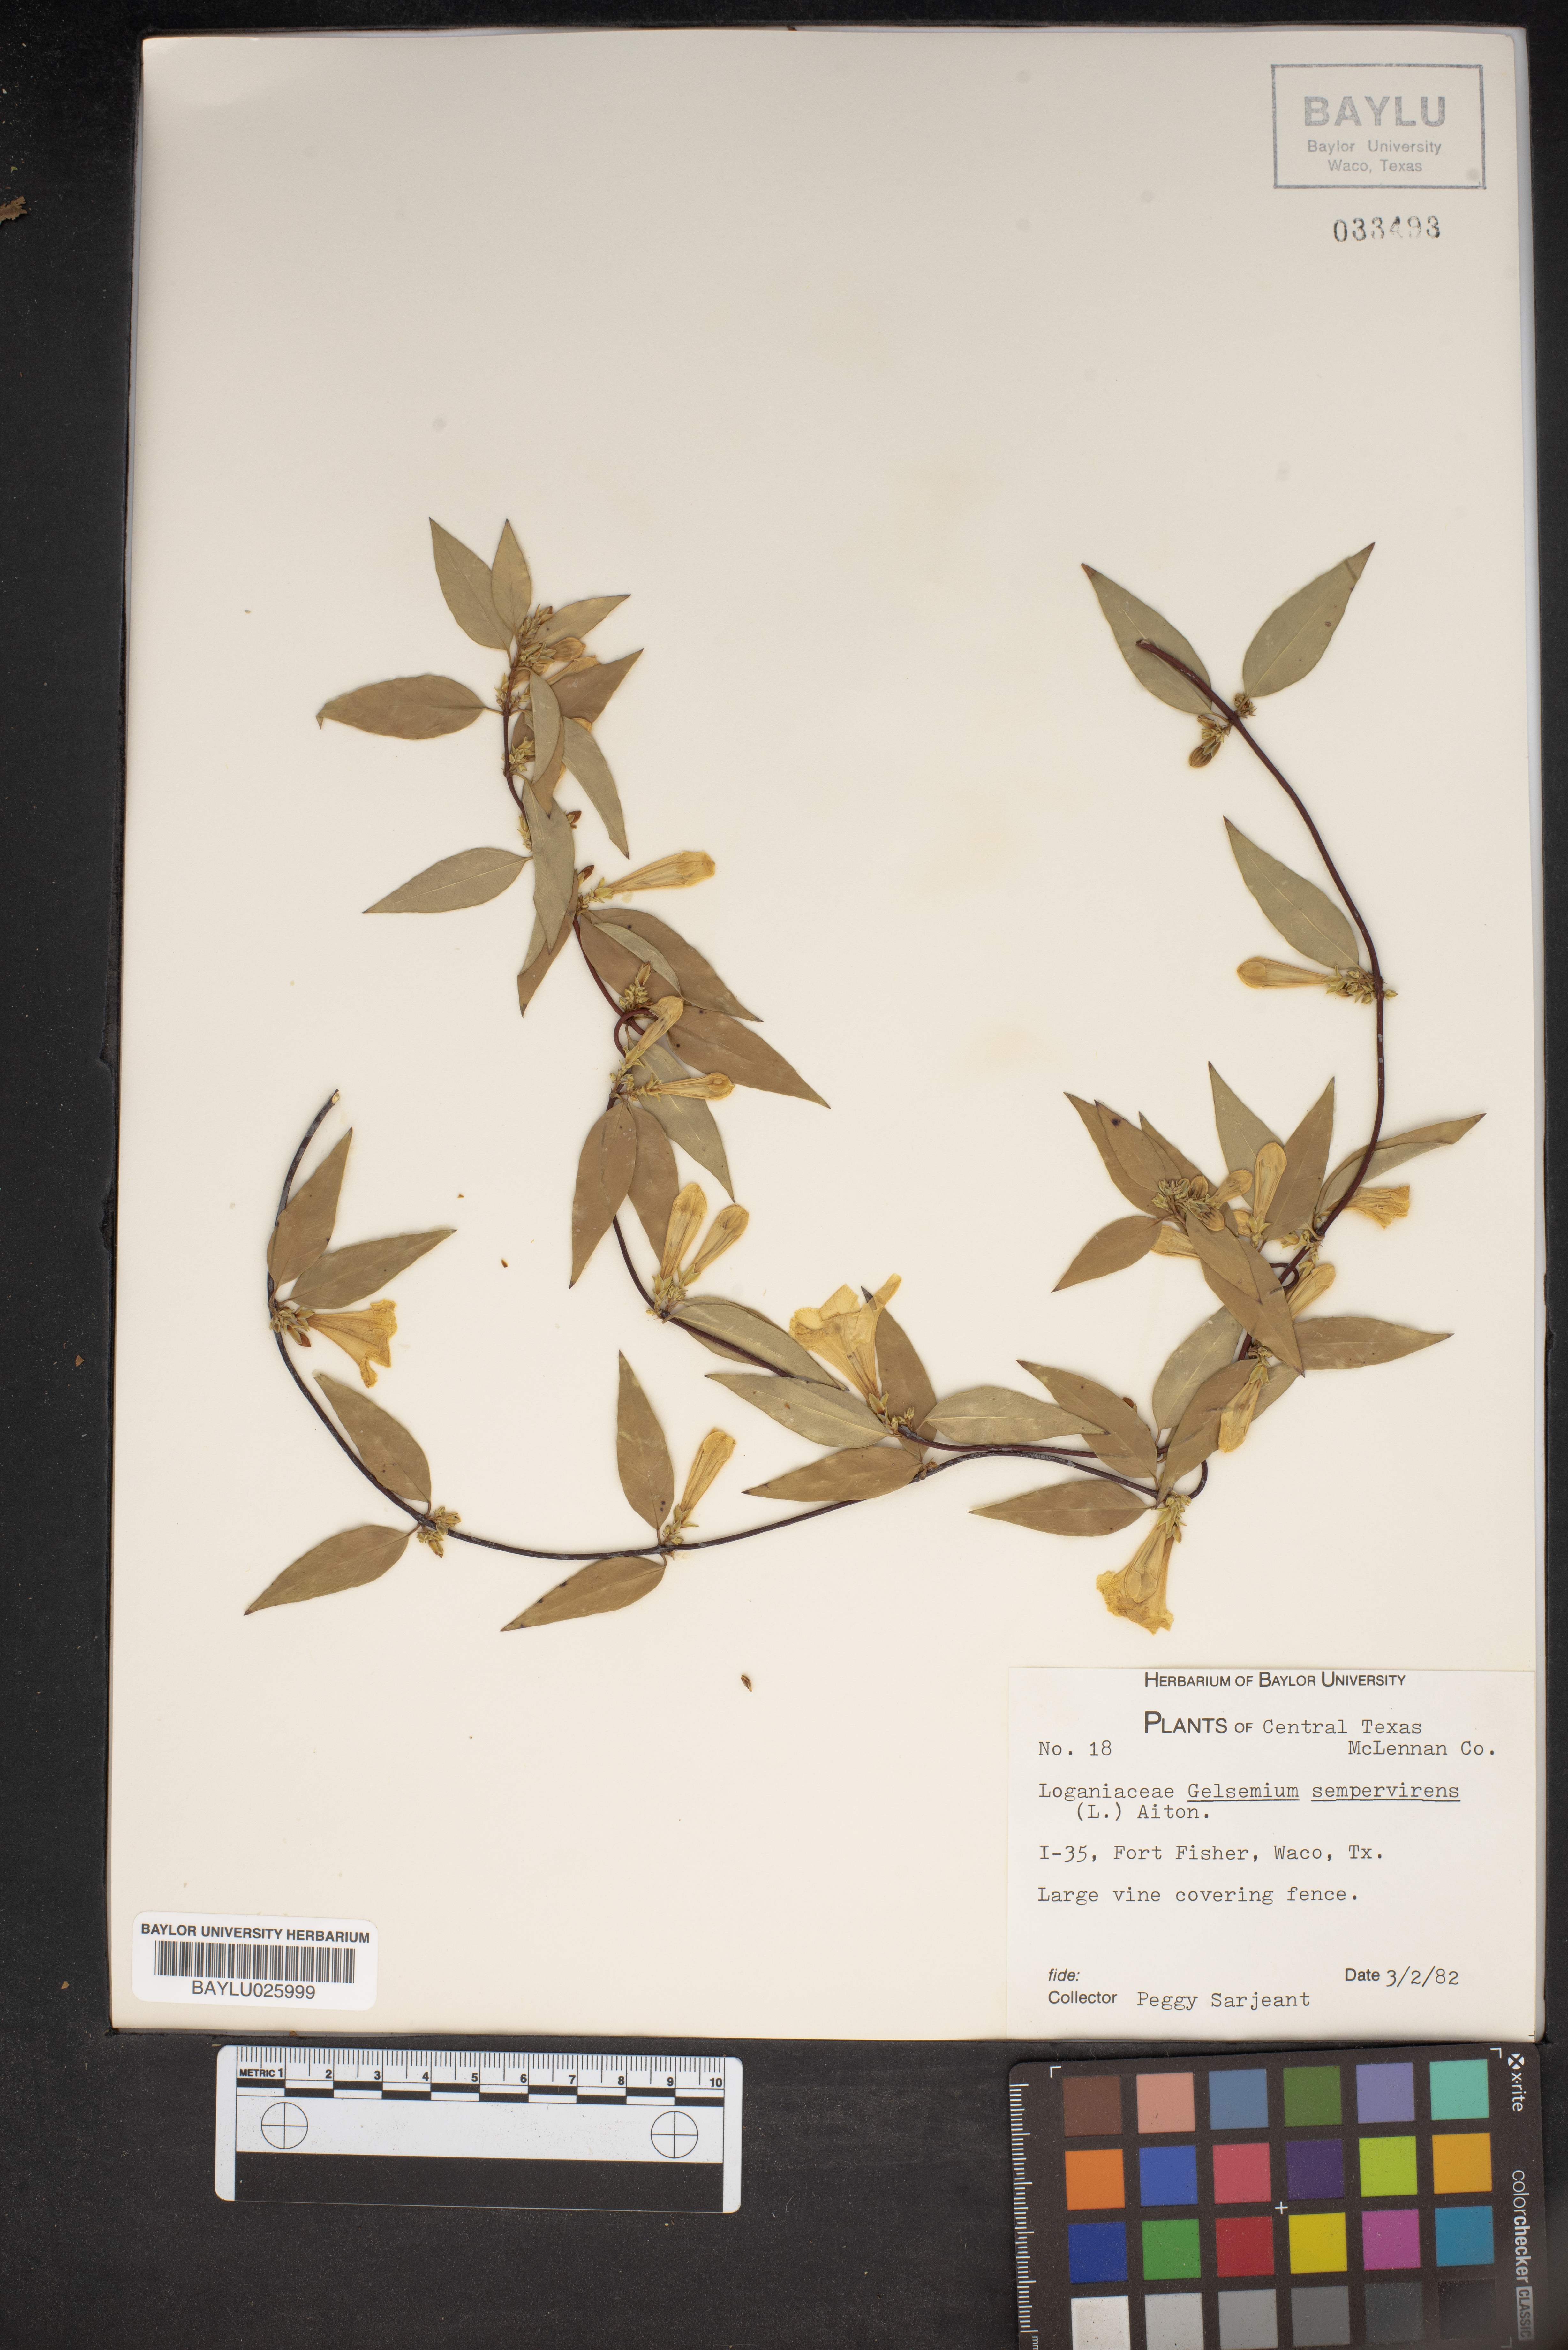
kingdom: Plantae
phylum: Tracheophyta
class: Magnoliopsida
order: Gentianales
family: Gelsemiaceae
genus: Gelsemium
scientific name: Gelsemium sempervirens
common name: Carolina-jasmine
